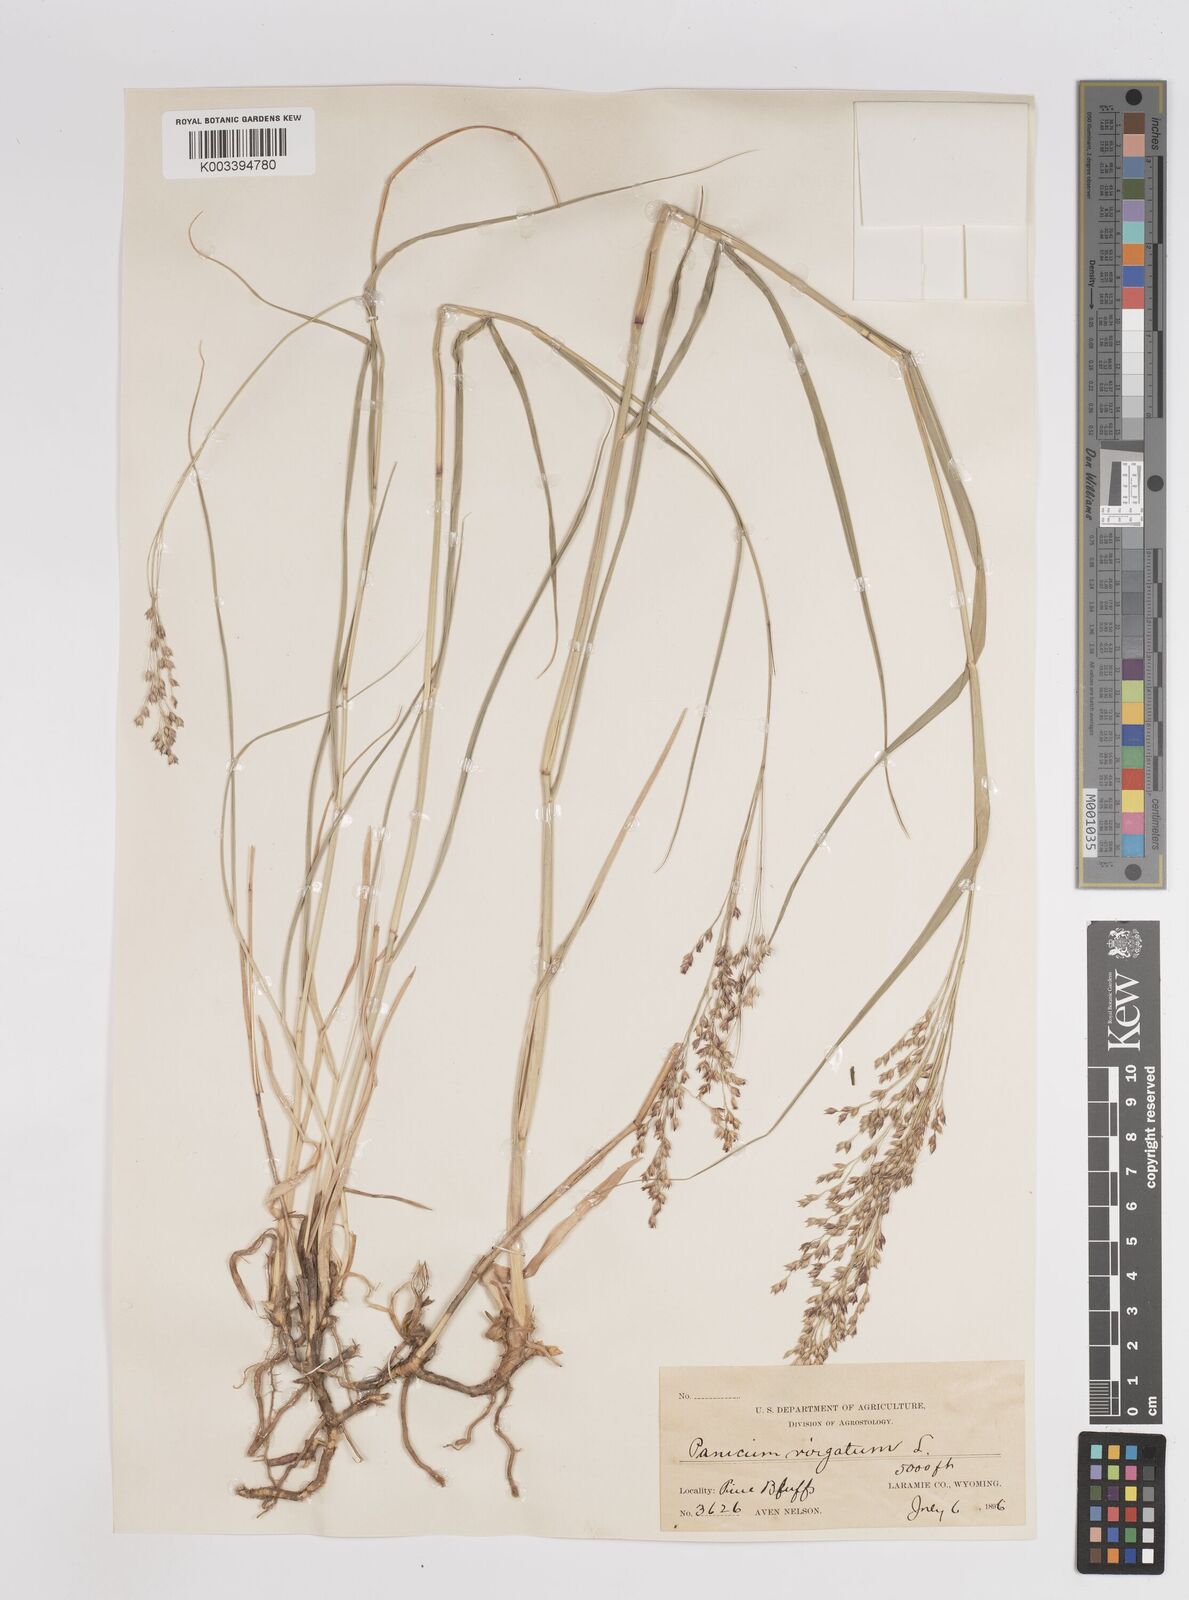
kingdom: Plantae
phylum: Tracheophyta
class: Liliopsida
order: Poales
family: Poaceae
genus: Panicum
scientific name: Panicum virgatum
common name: Switchgrass
